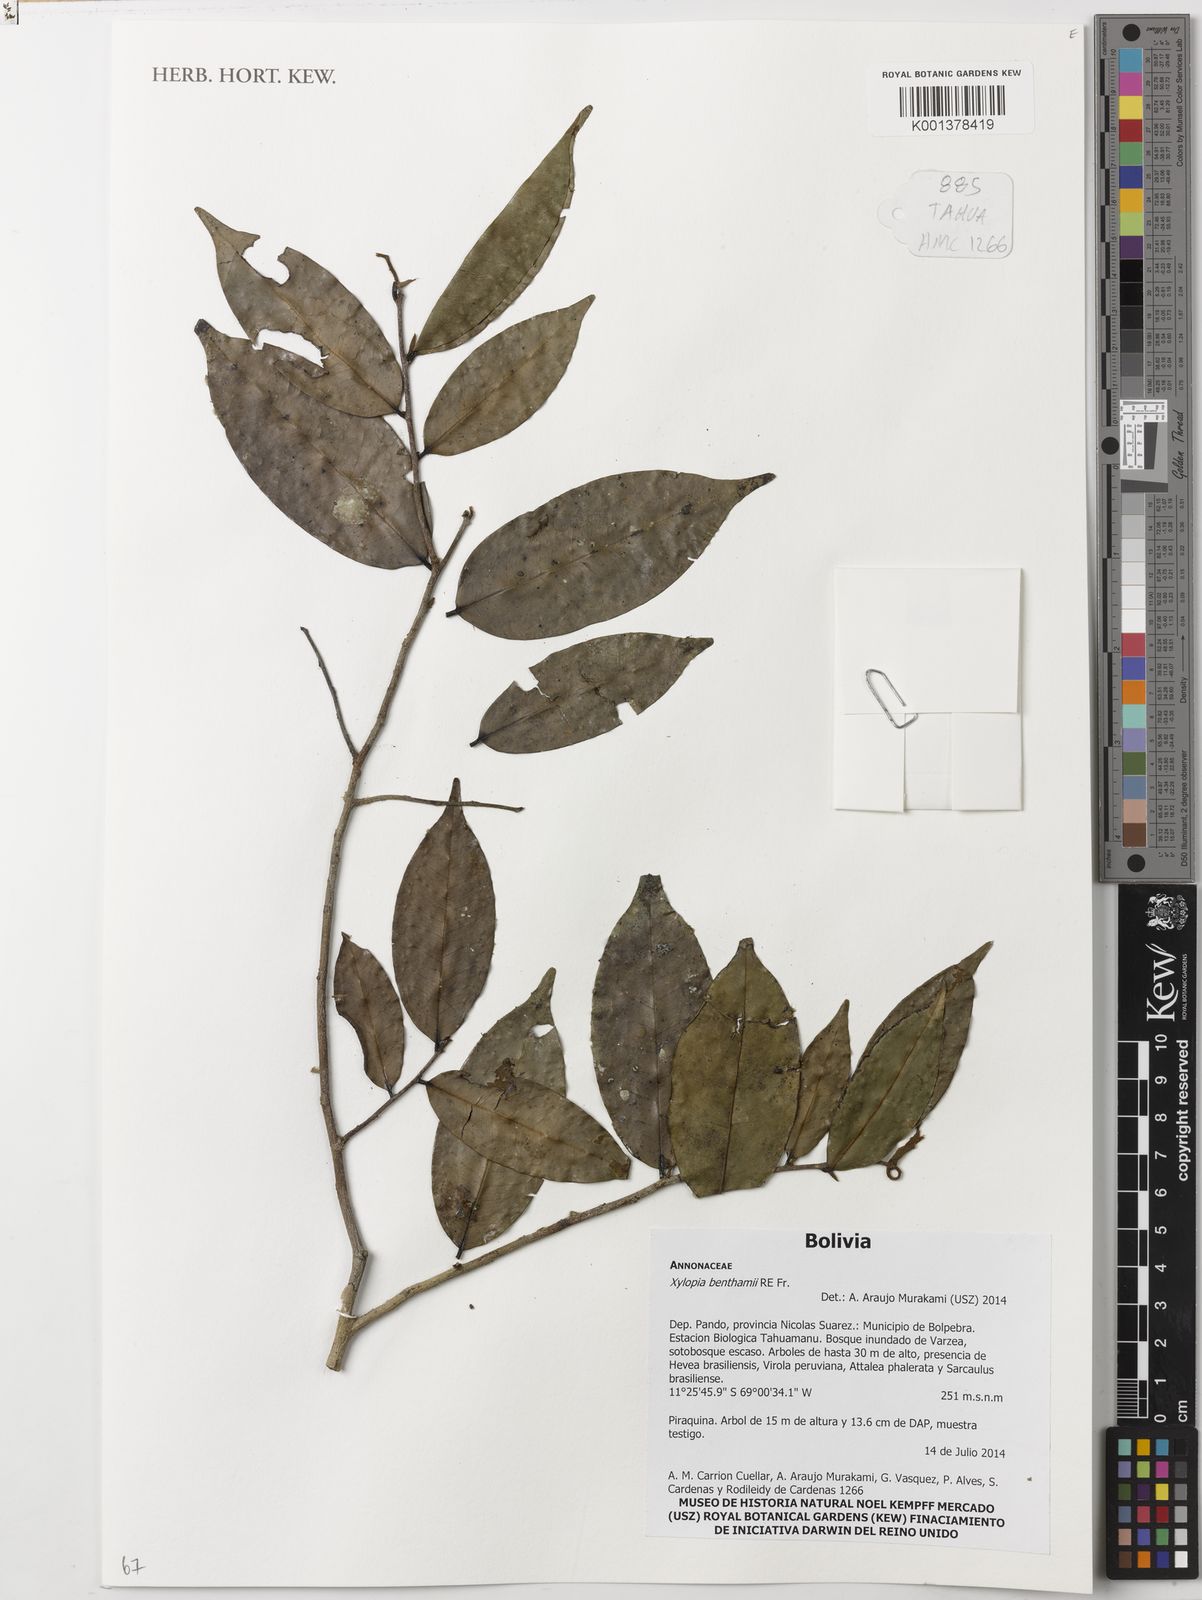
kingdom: Plantae
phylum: Tracheophyta
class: Magnoliopsida
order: Magnoliales
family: Annonaceae
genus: Xylopia
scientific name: Xylopia benthamii
